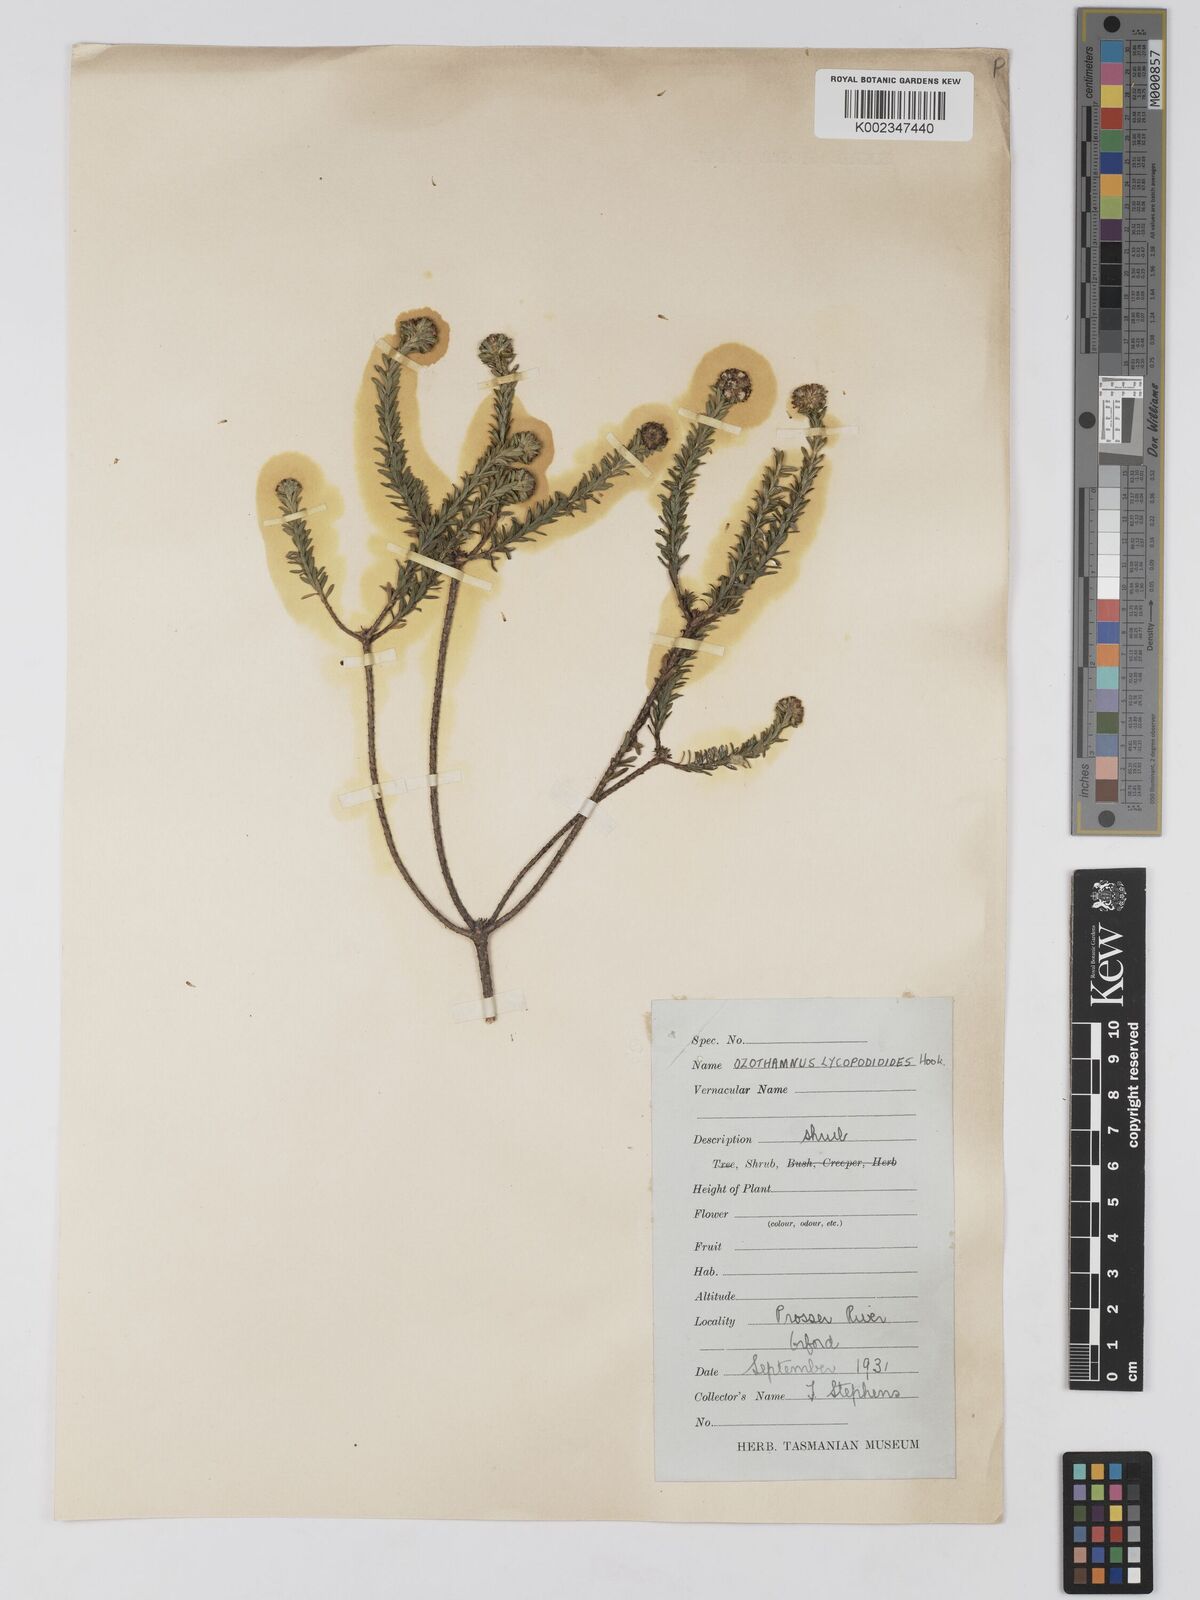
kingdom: Plantae
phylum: Tracheophyta
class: Magnoliopsida
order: Asterales
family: Asteraceae
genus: Ozothamnus
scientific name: Ozothamnus lycopodioides
